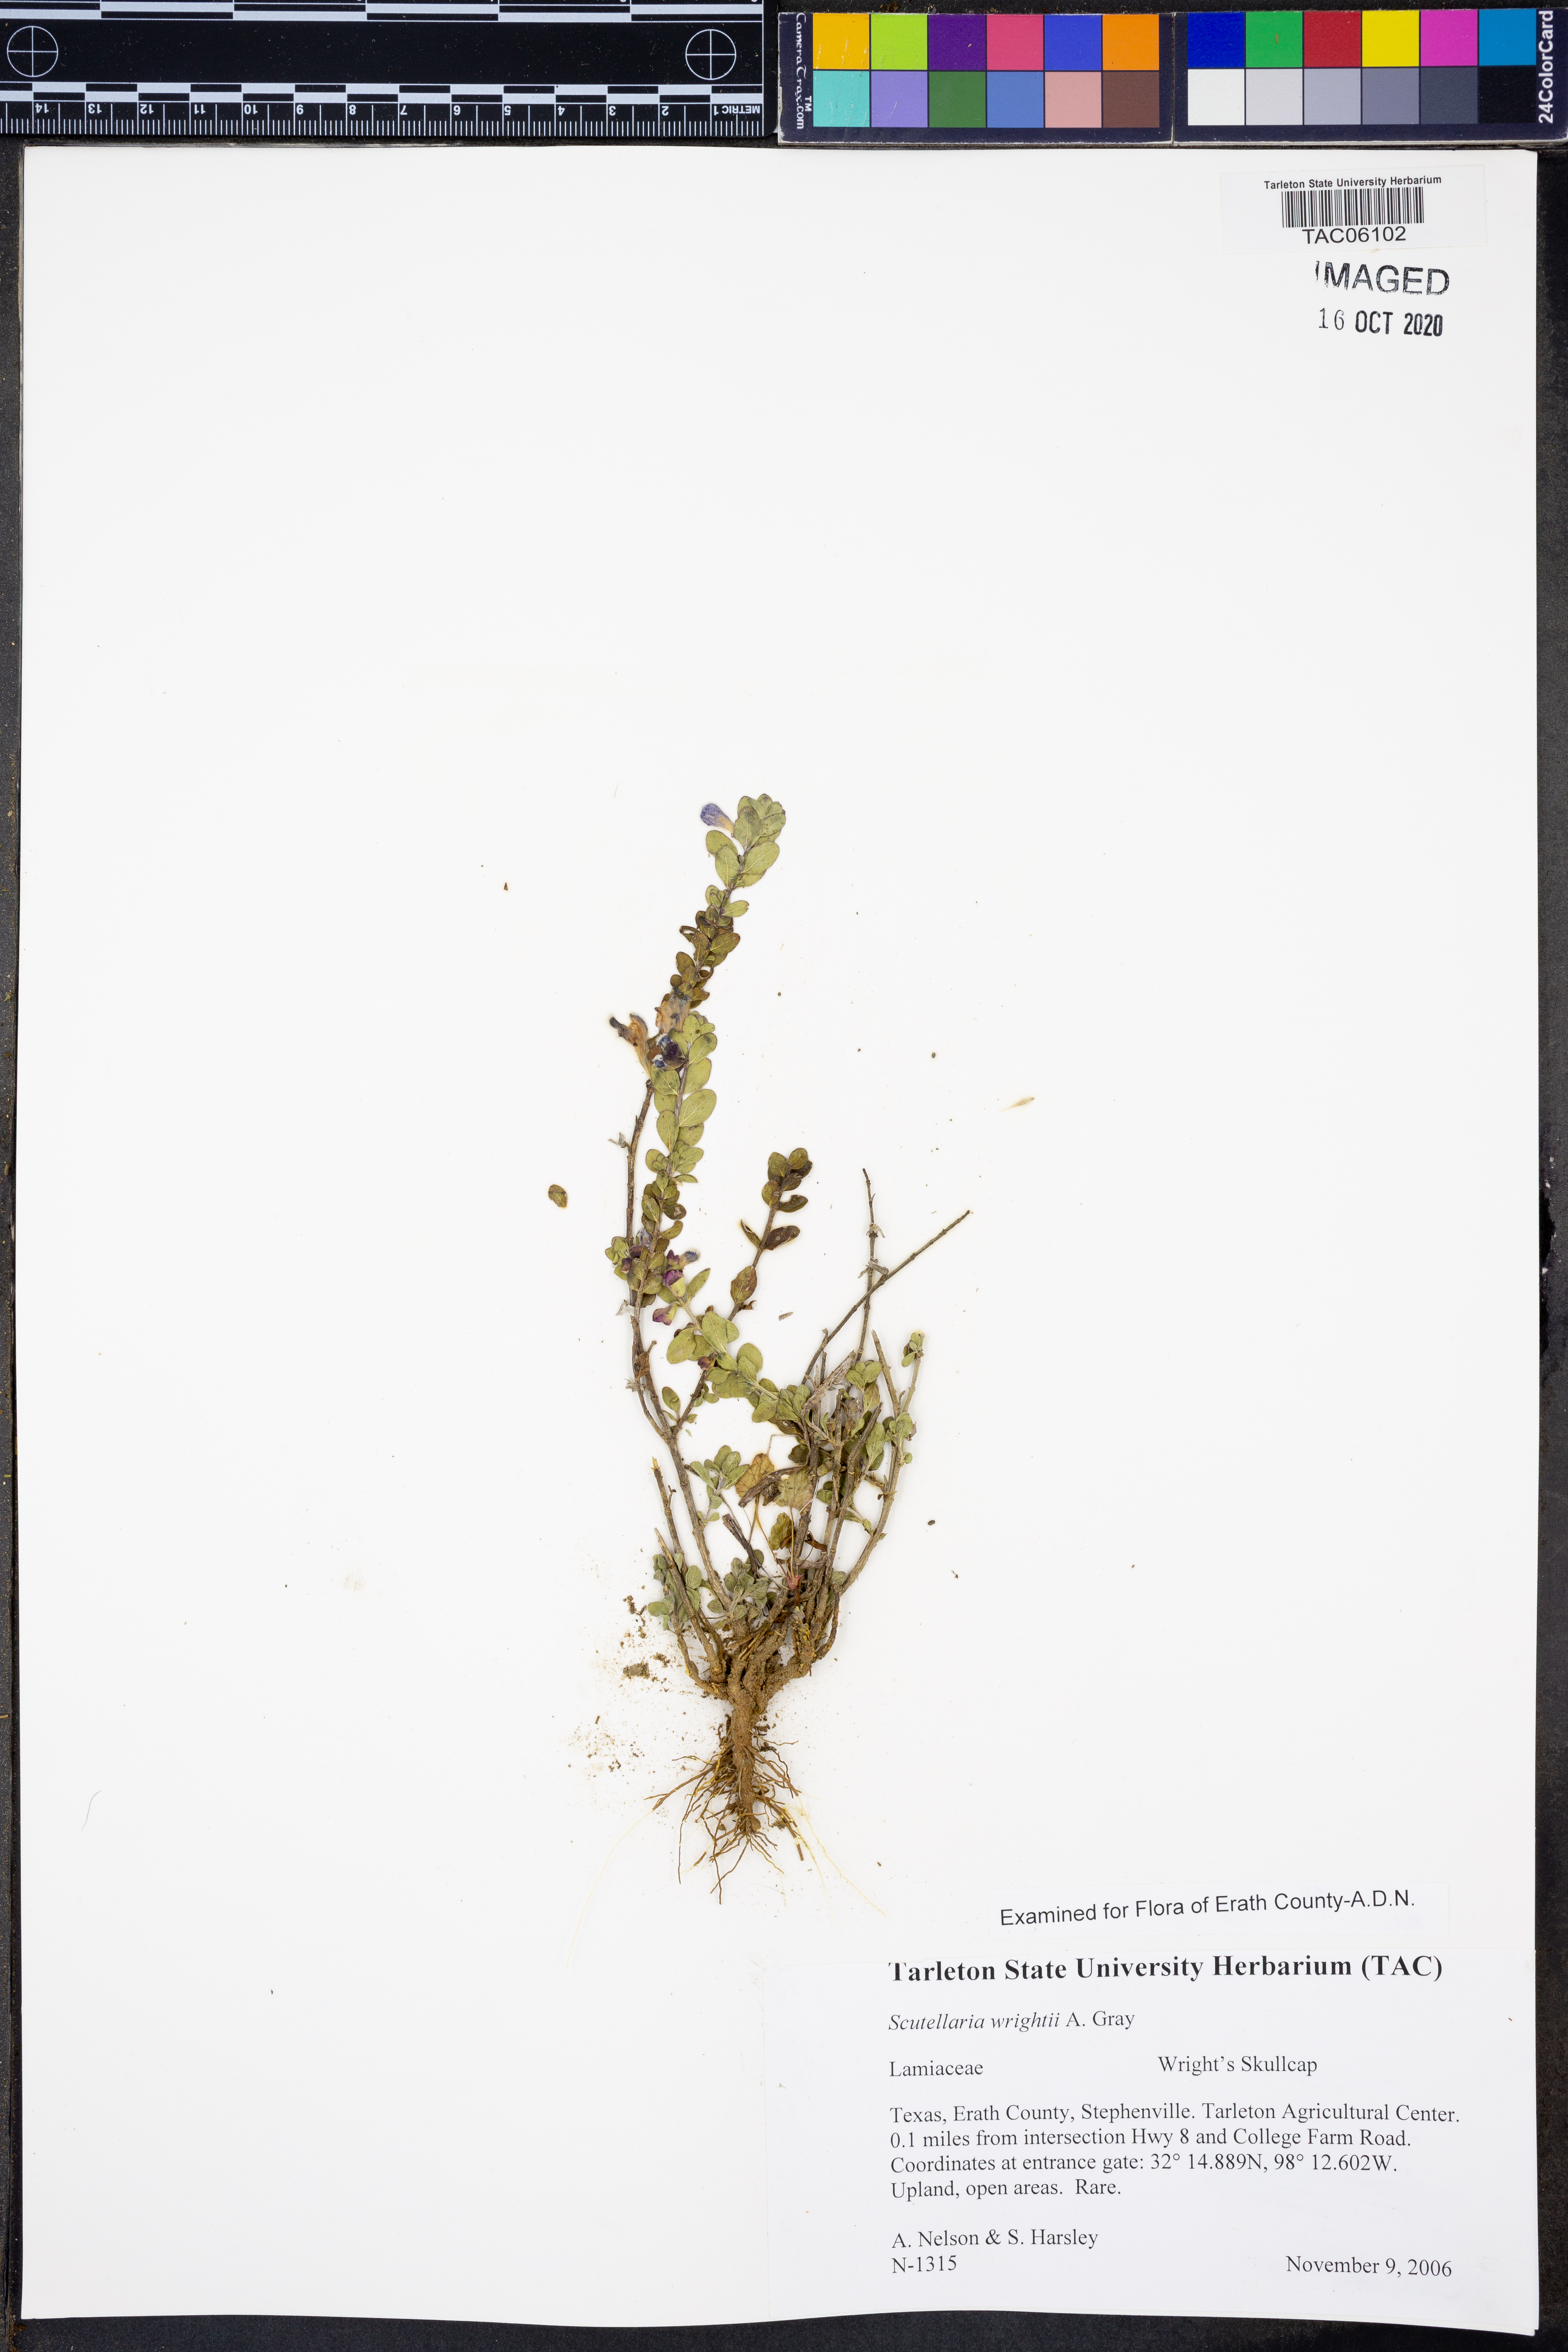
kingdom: Plantae
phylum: Tracheophyta
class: Magnoliopsida
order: Lamiales
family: Lamiaceae
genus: Scutellaria
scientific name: Scutellaria wrightii
